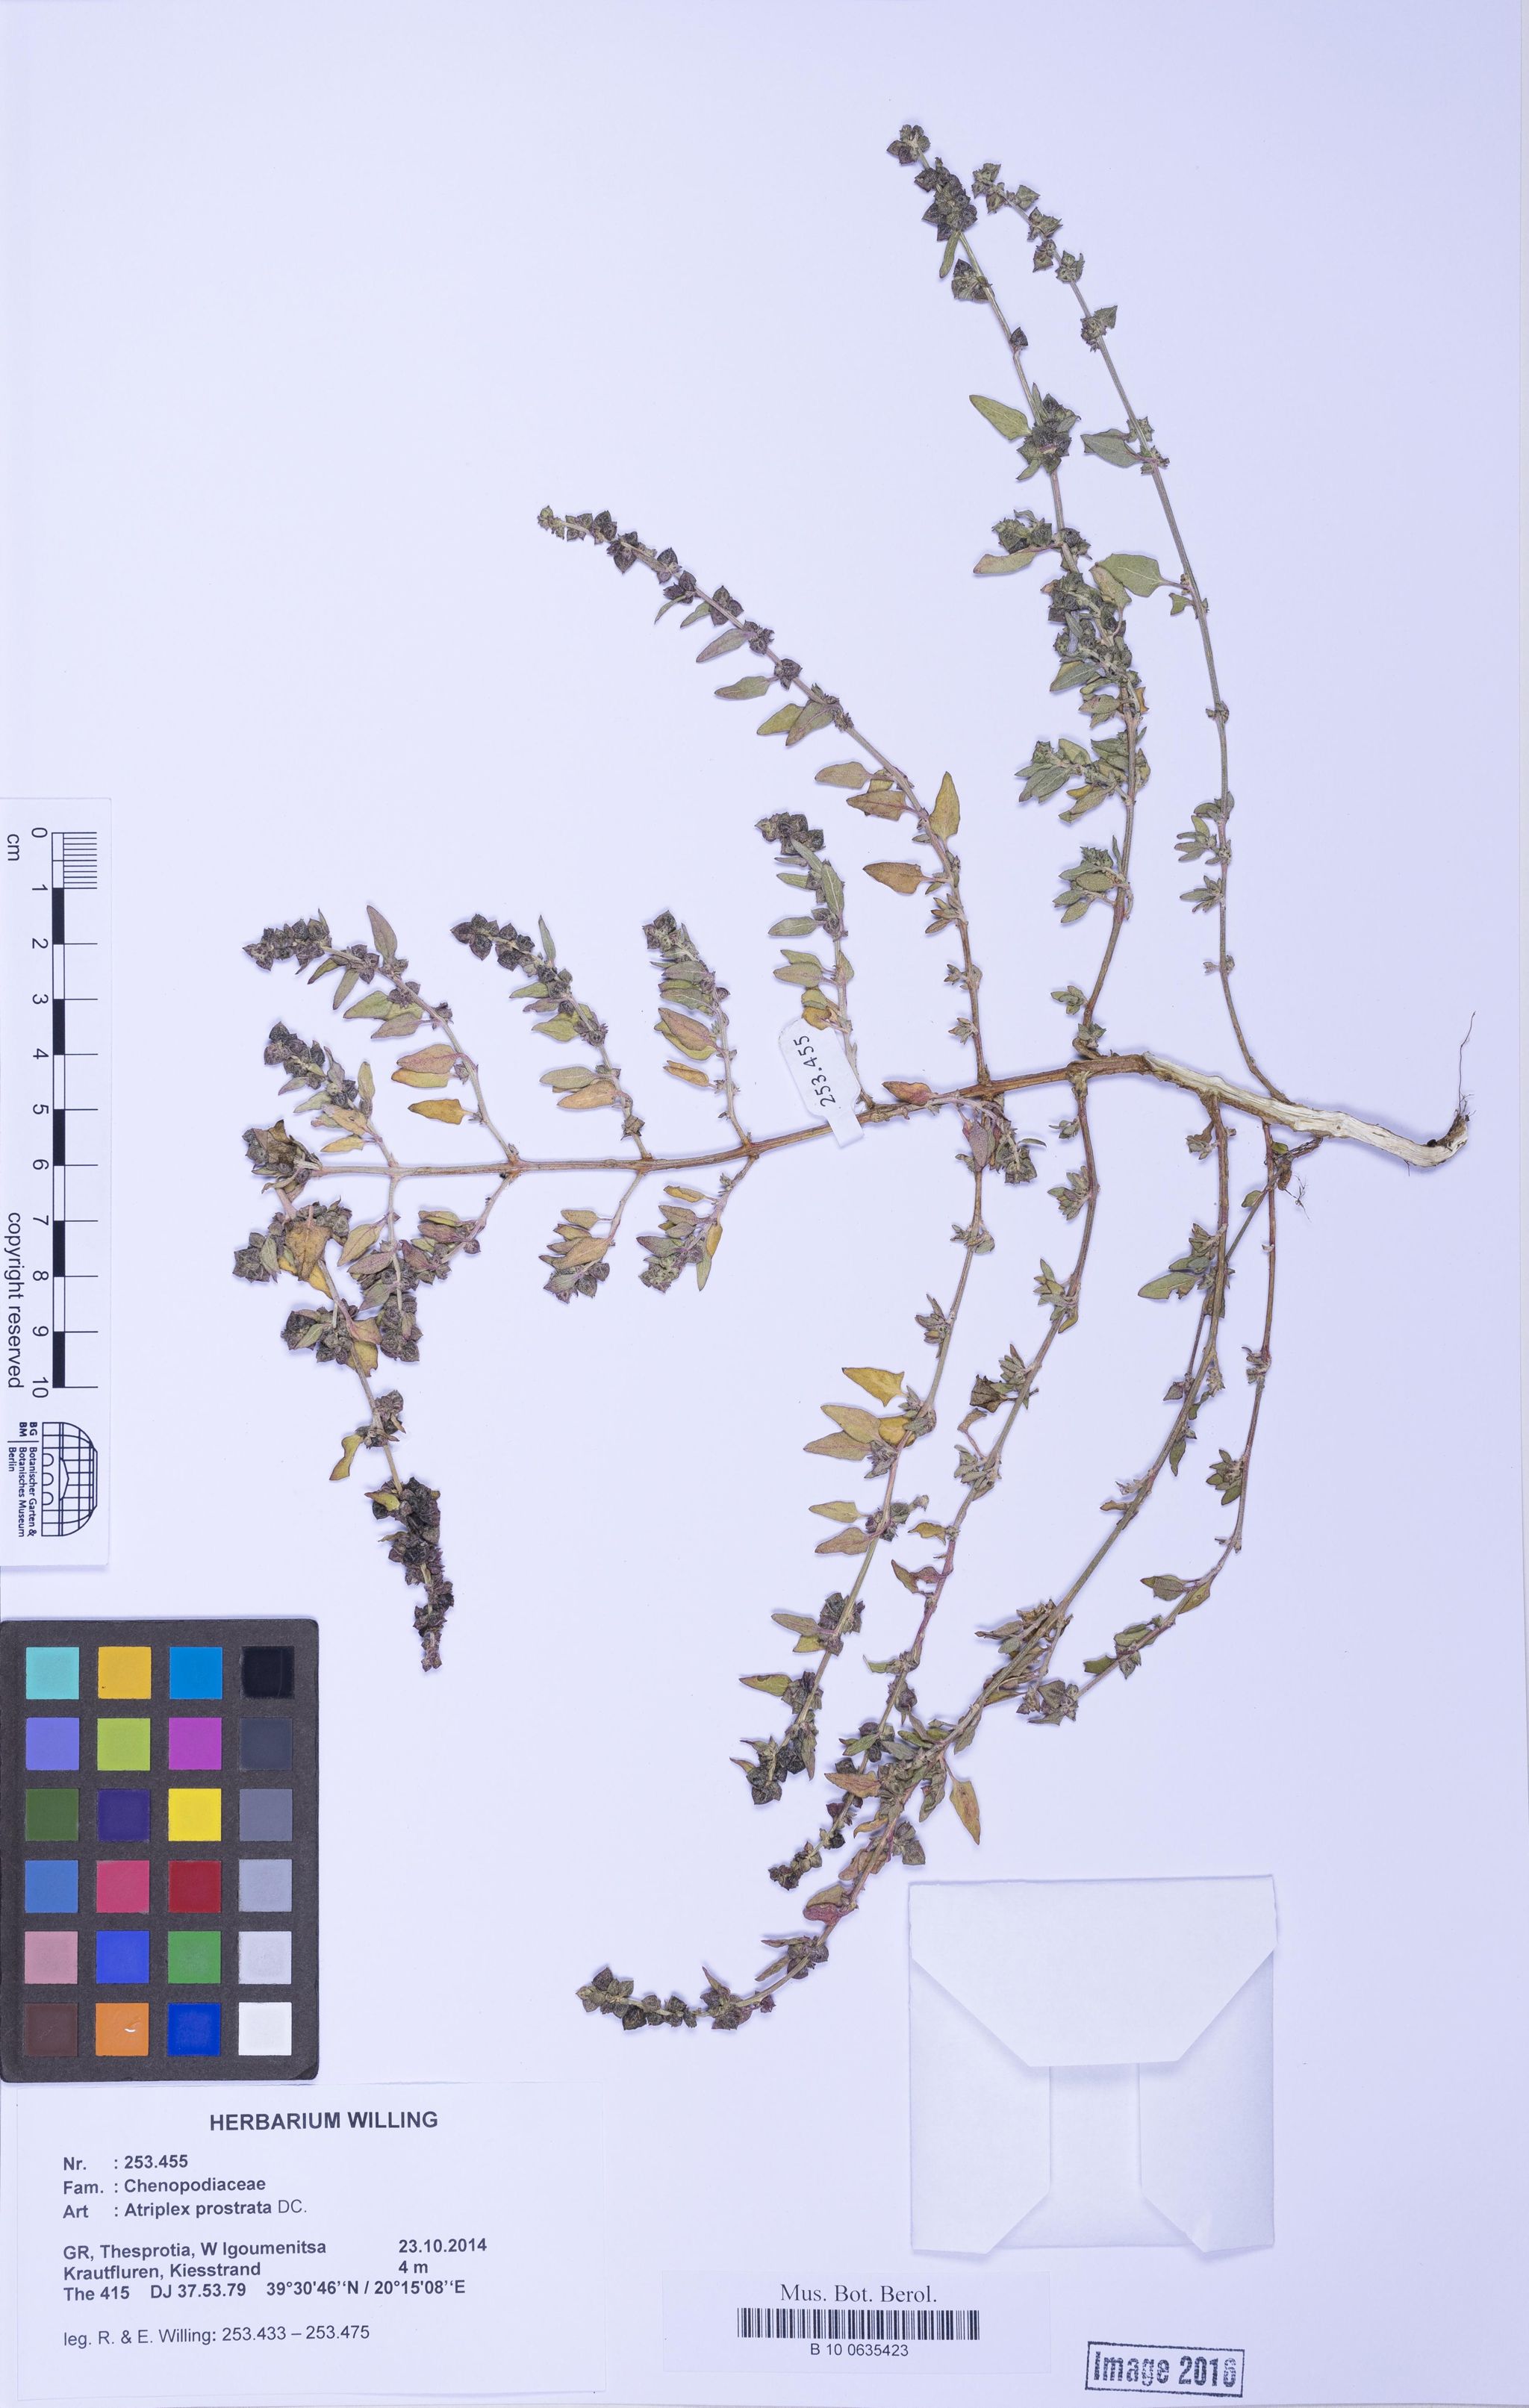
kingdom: Plantae
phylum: Tracheophyta
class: Magnoliopsida
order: Caryophyllales
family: Amaranthaceae
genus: Atriplex
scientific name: Atriplex prostrata
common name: Spear-leaved orache
